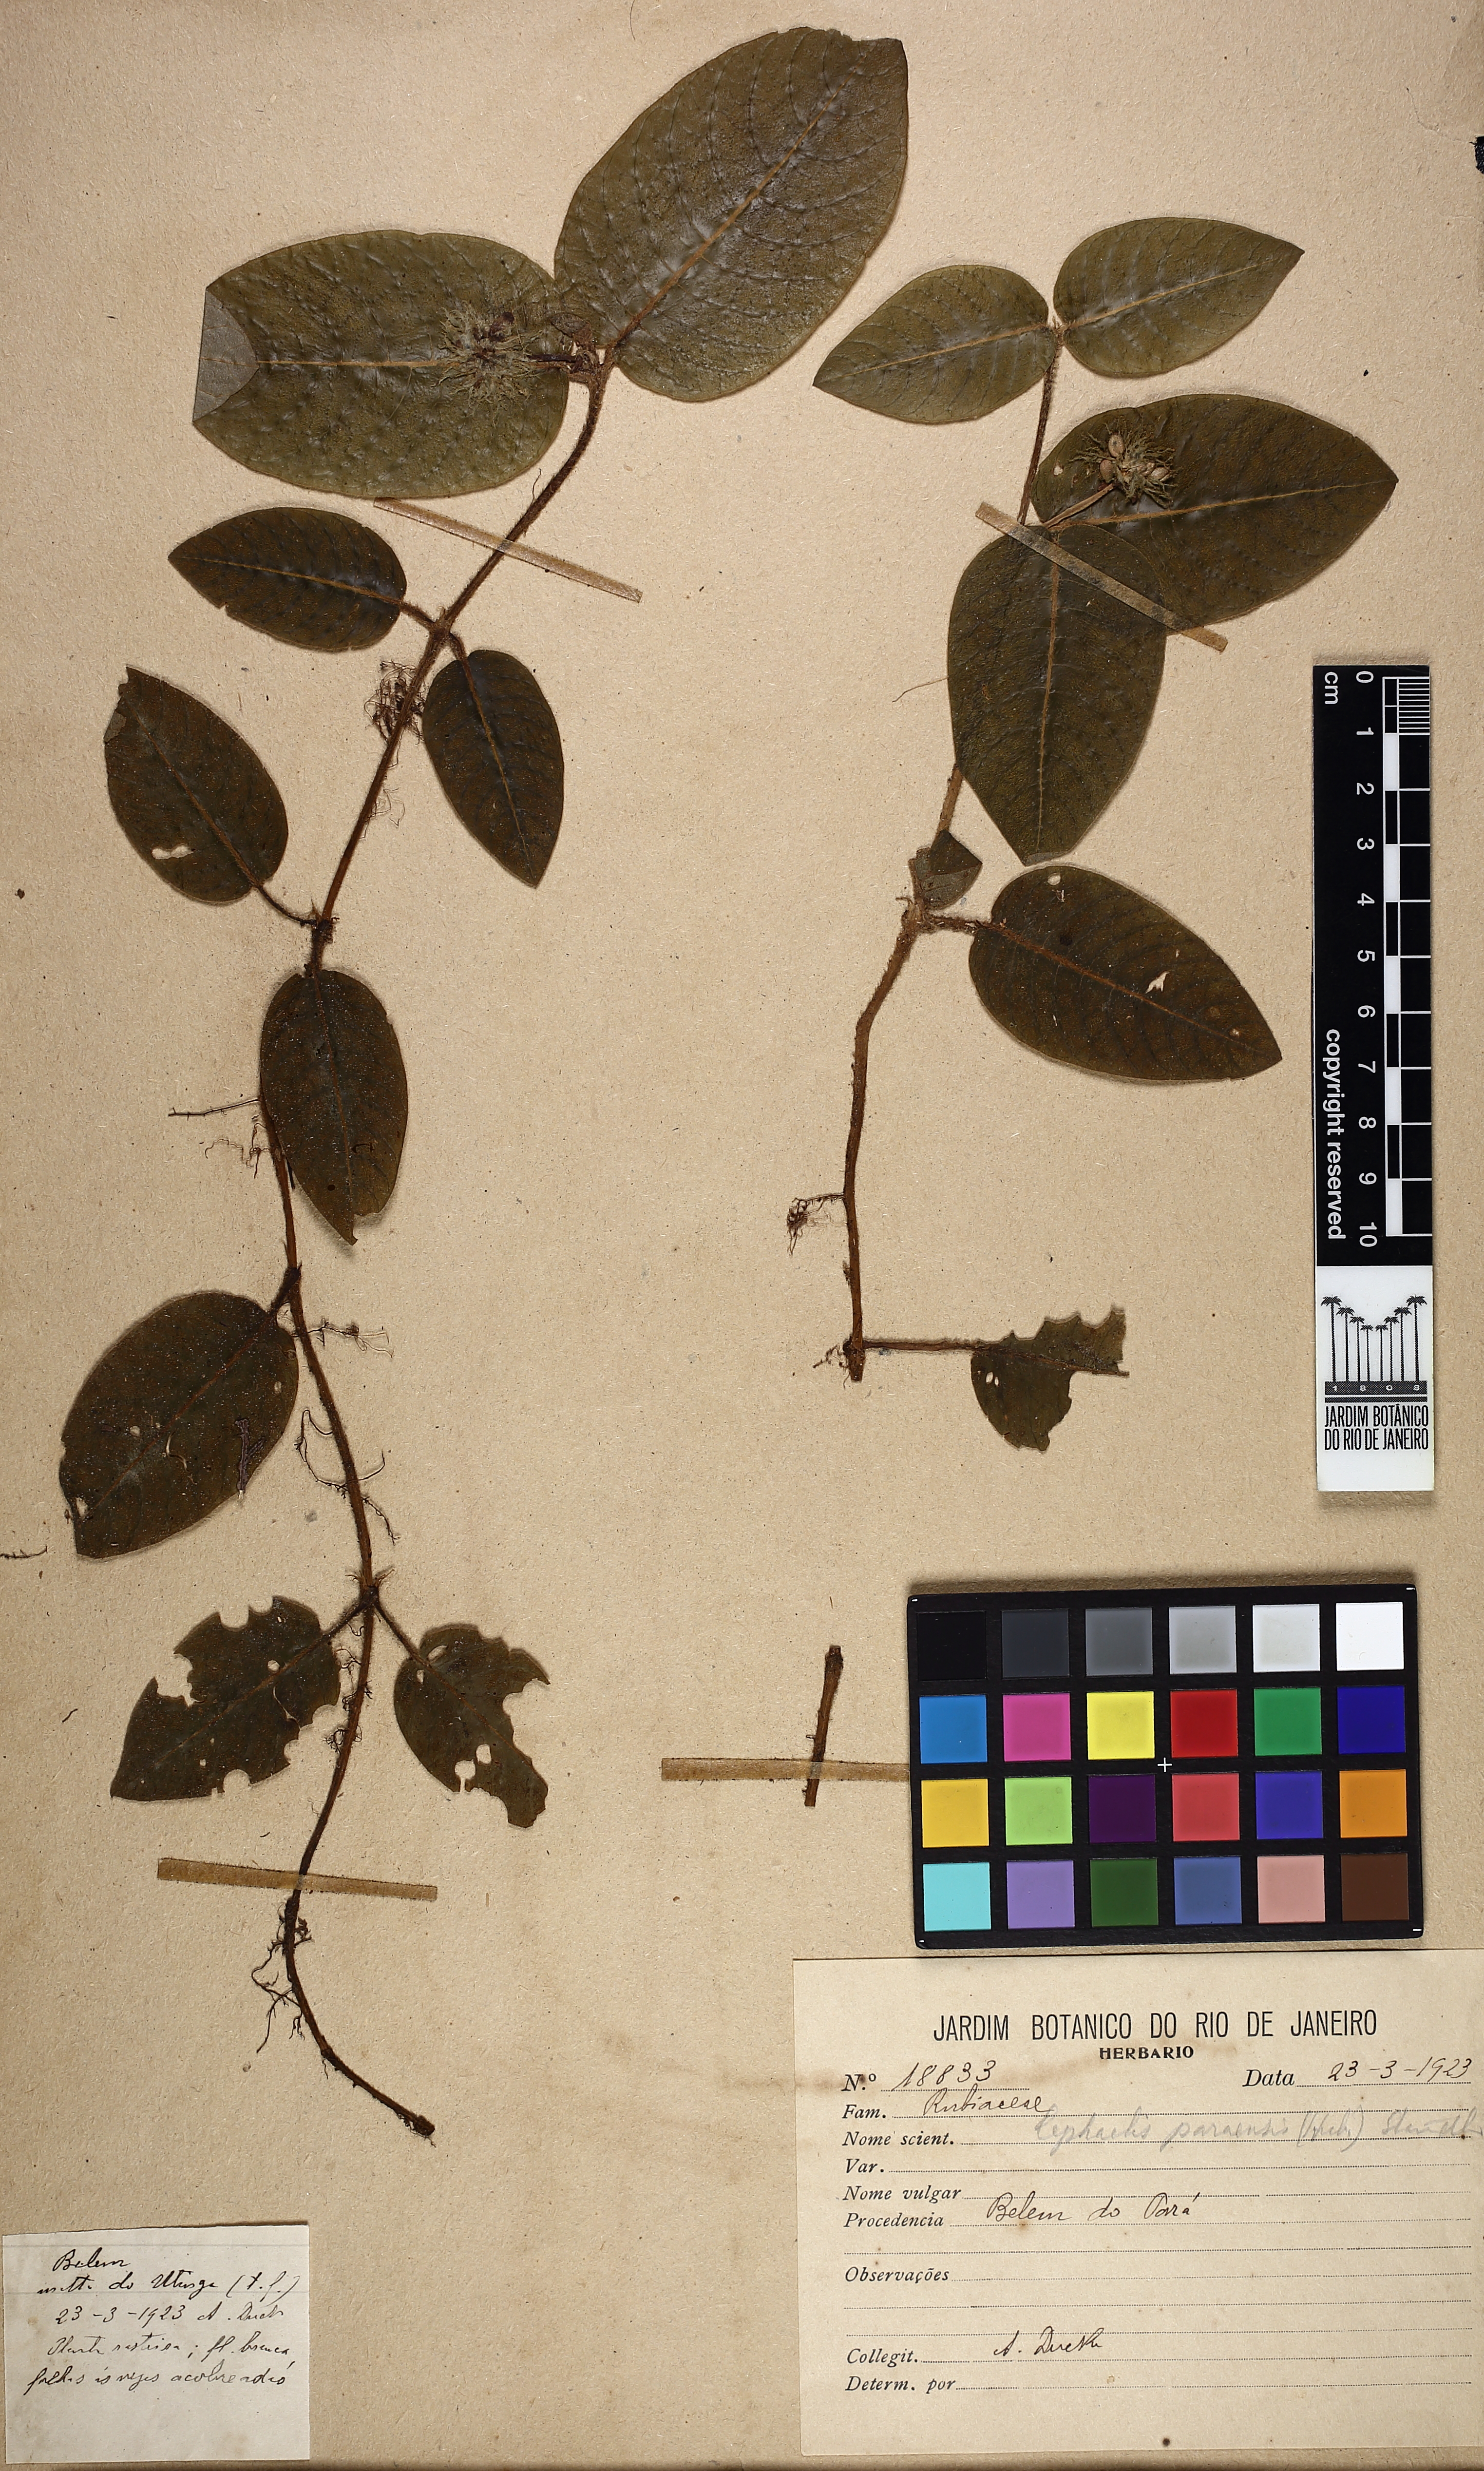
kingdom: Plantae
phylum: Tracheophyta
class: Magnoliopsida
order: Gentianales
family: Rubiaceae
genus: Palicourea
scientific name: Palicourea alba
